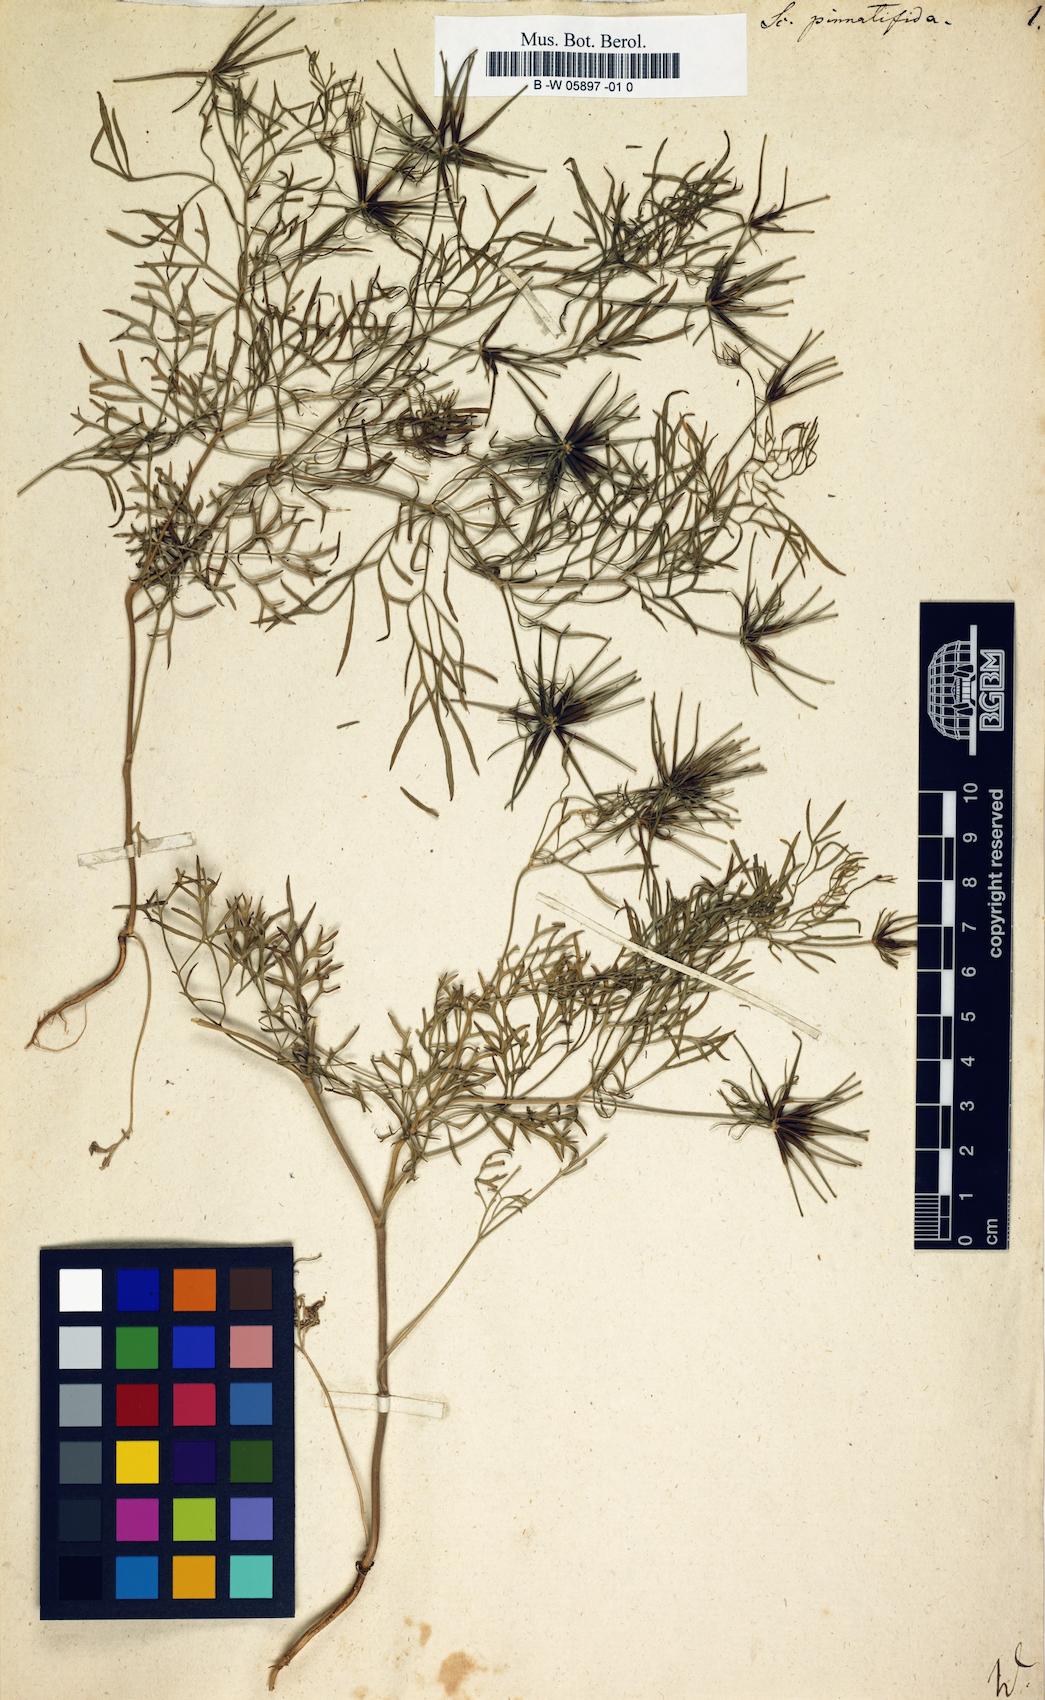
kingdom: Plantae
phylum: Tracheophyta
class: Magnoliopsida
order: Apiales
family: Apiaceae
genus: Scandix
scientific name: Scandix
